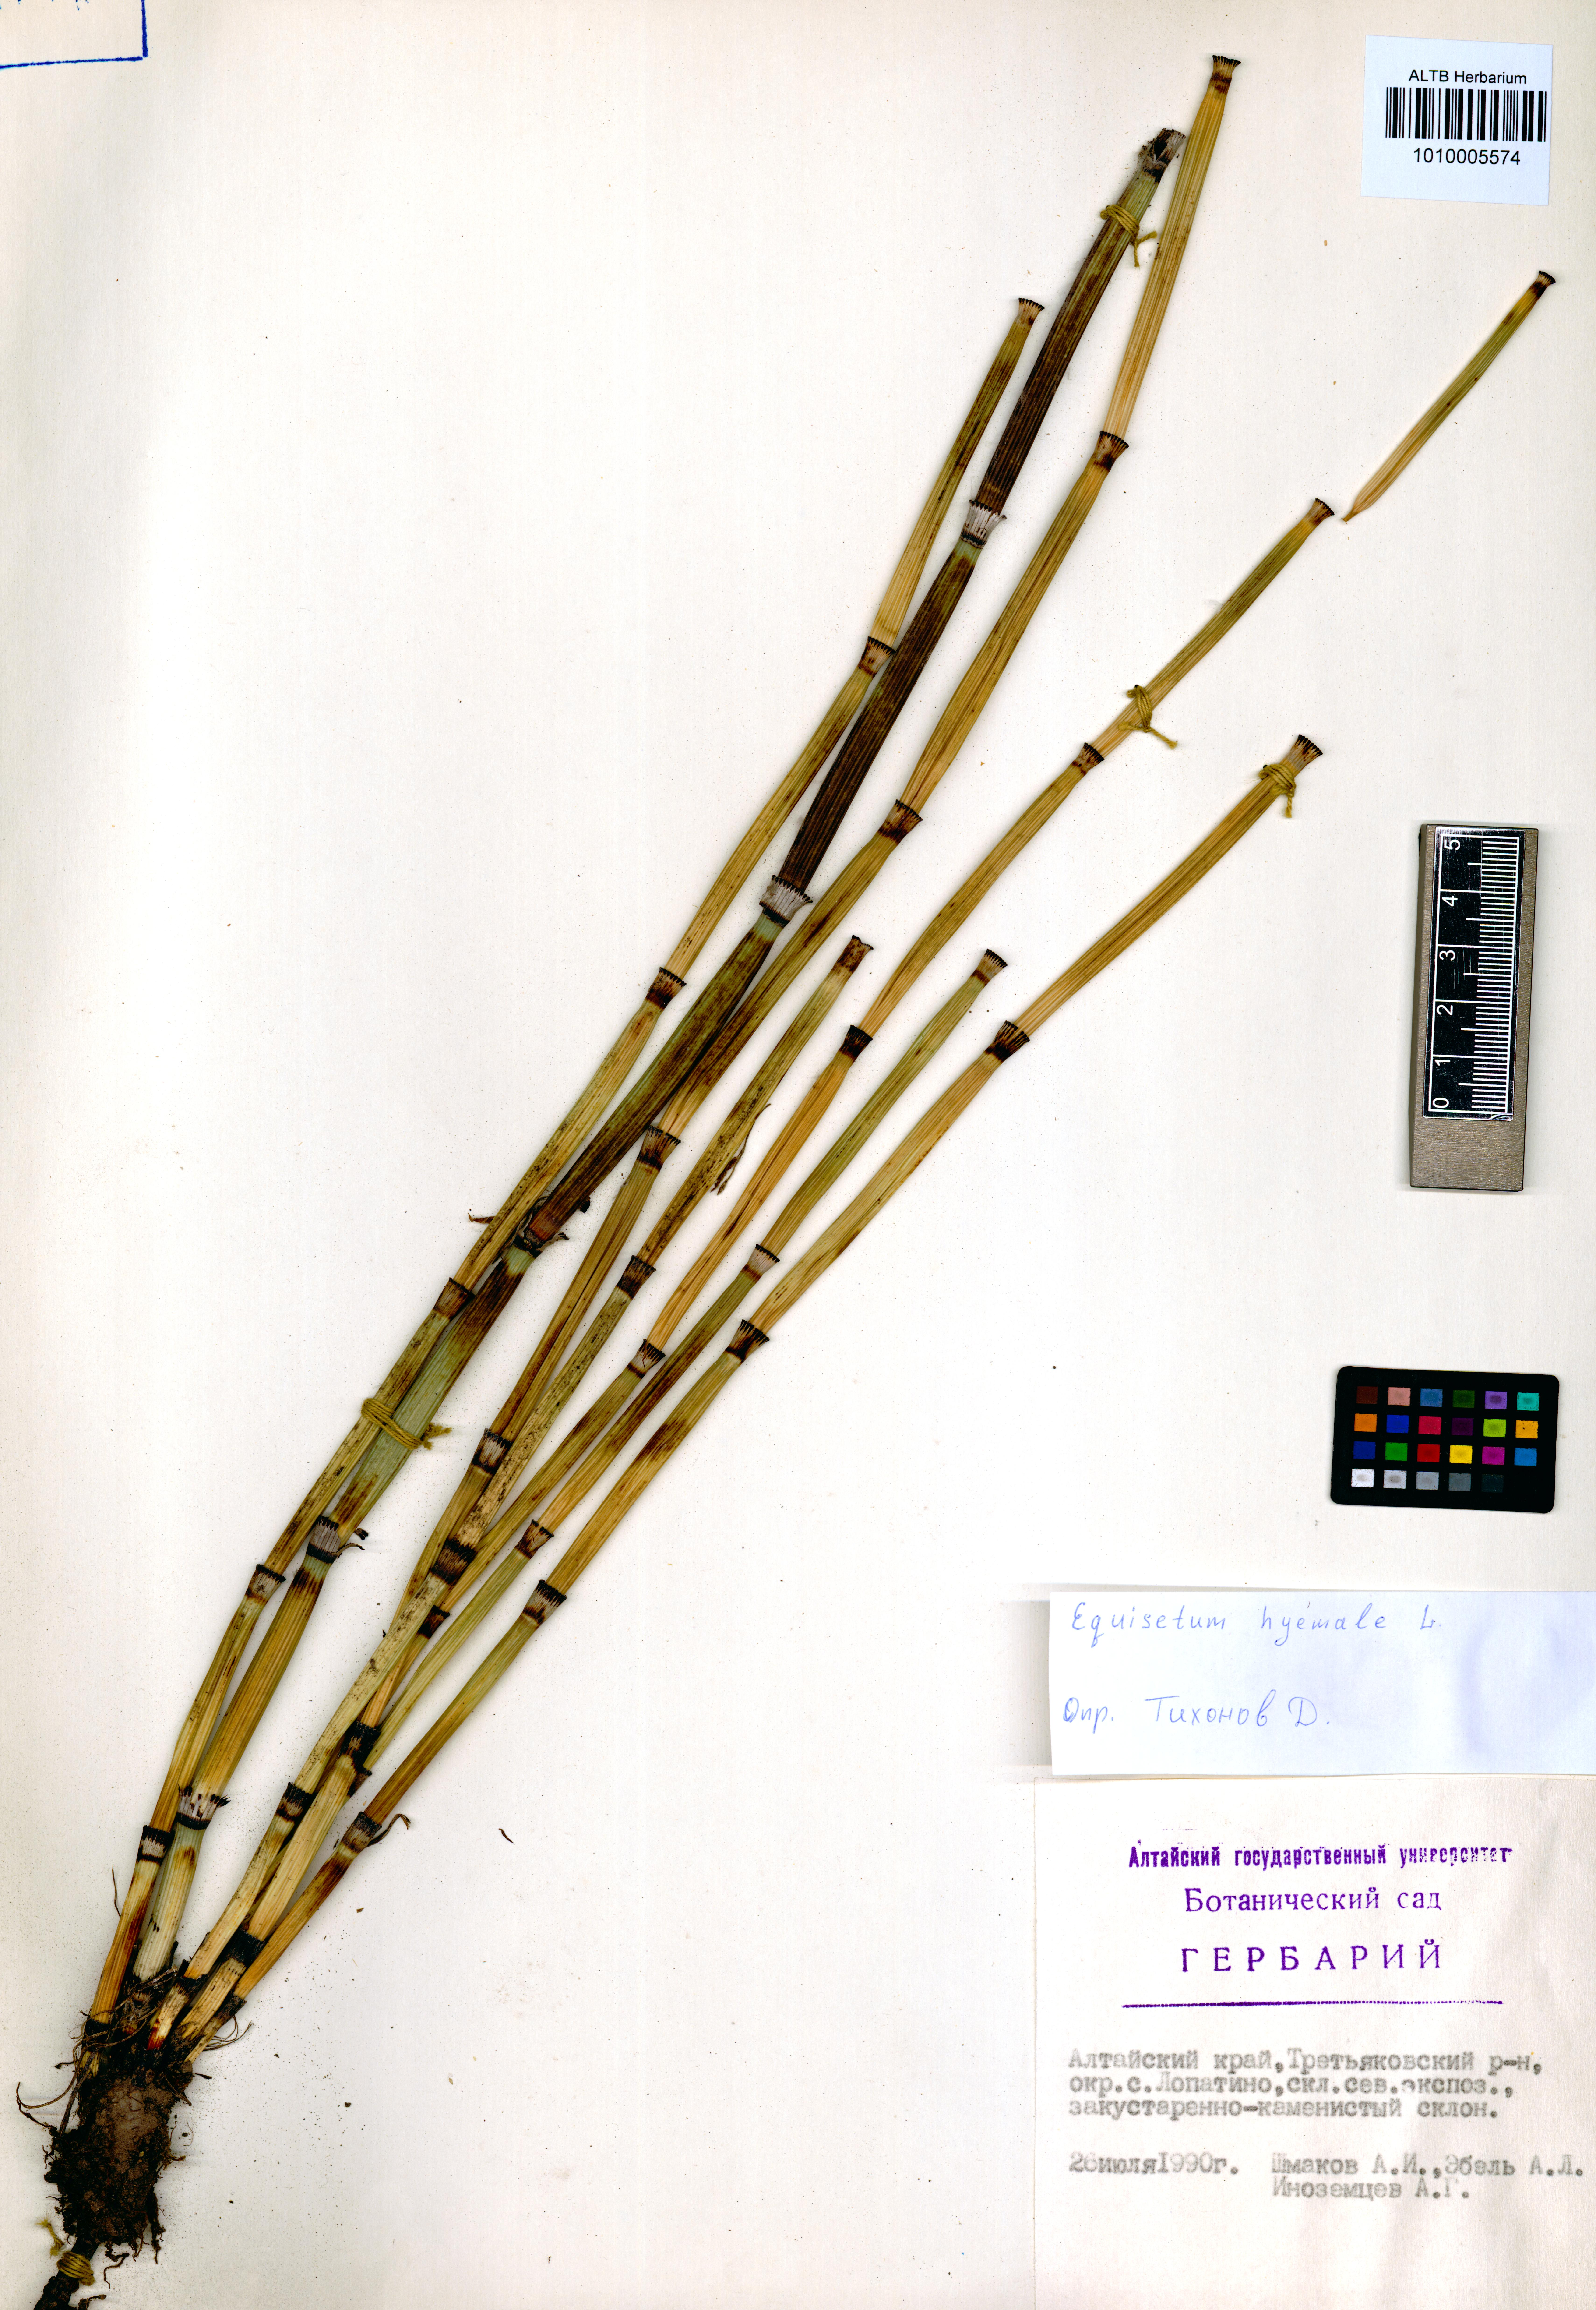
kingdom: Plantae
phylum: Tracheophyta
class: Polypodiopsida
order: Equisetales
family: Equisetaceae
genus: Equisetum
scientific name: Equisetum hyemale
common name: Rough horsetail
